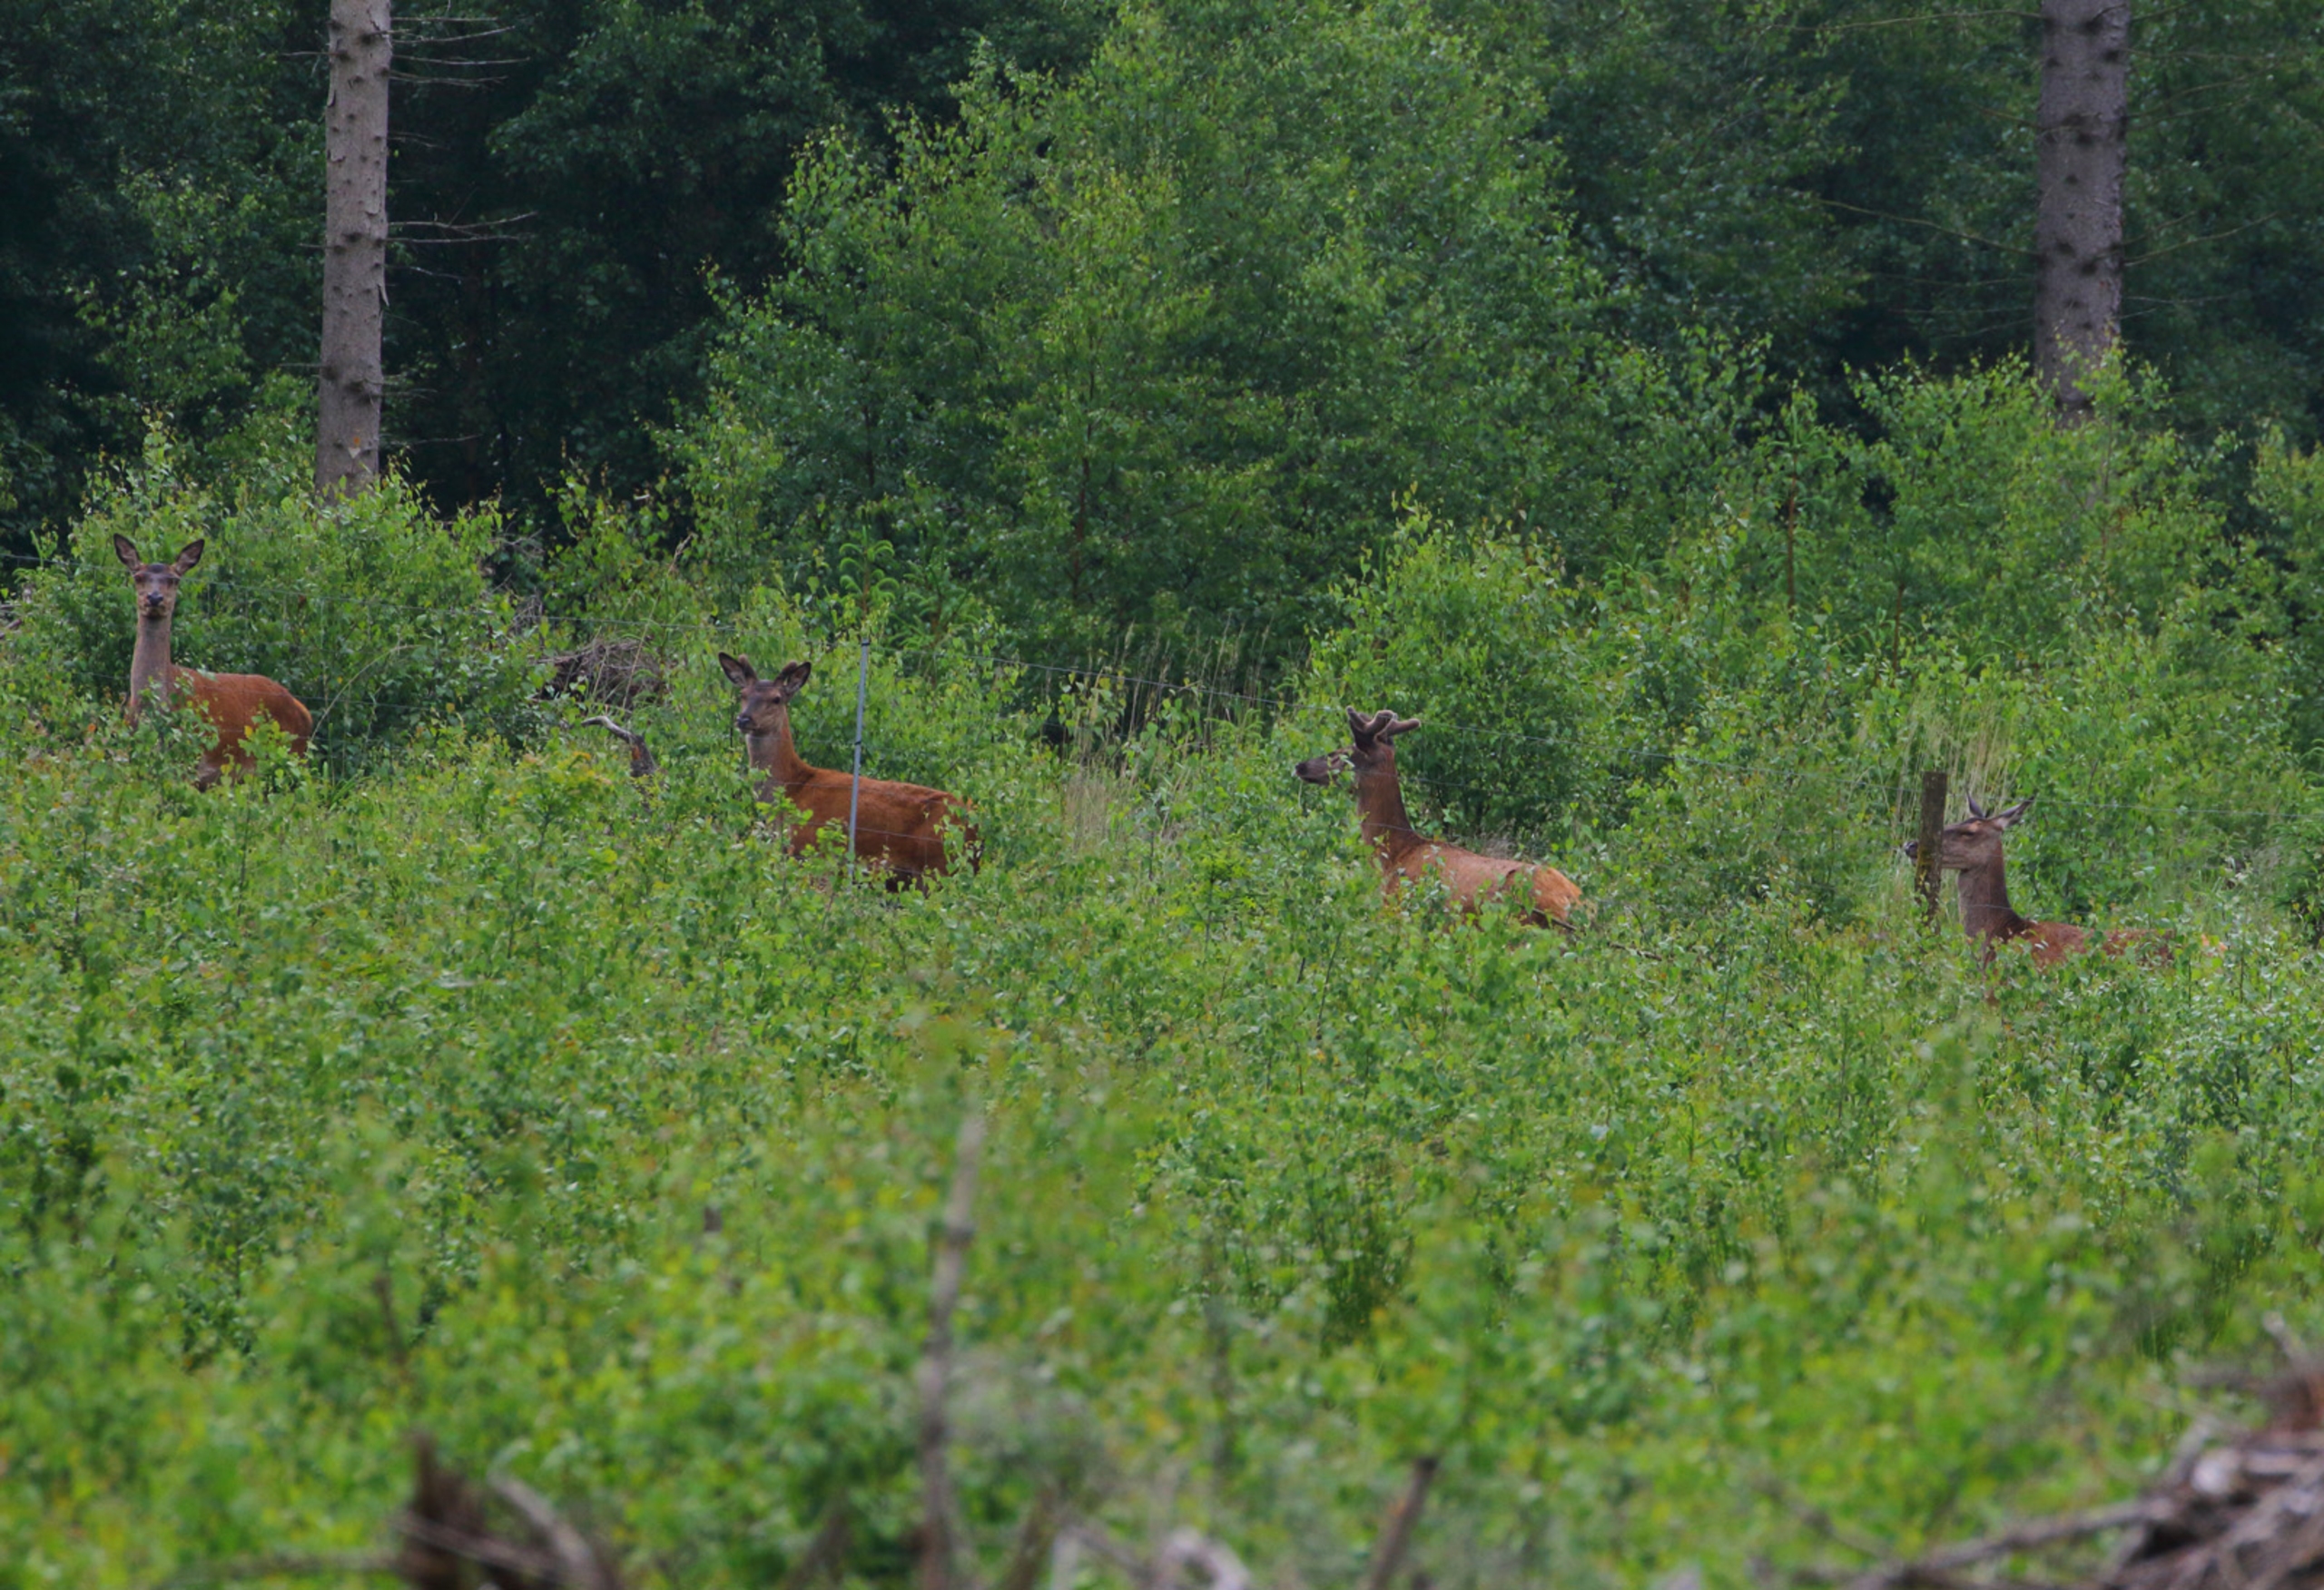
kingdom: Animalia
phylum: Chordata
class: Mammalia
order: Artiodactyla
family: Cervidae
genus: Cervus
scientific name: Cervus elaphus
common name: Krondyr
